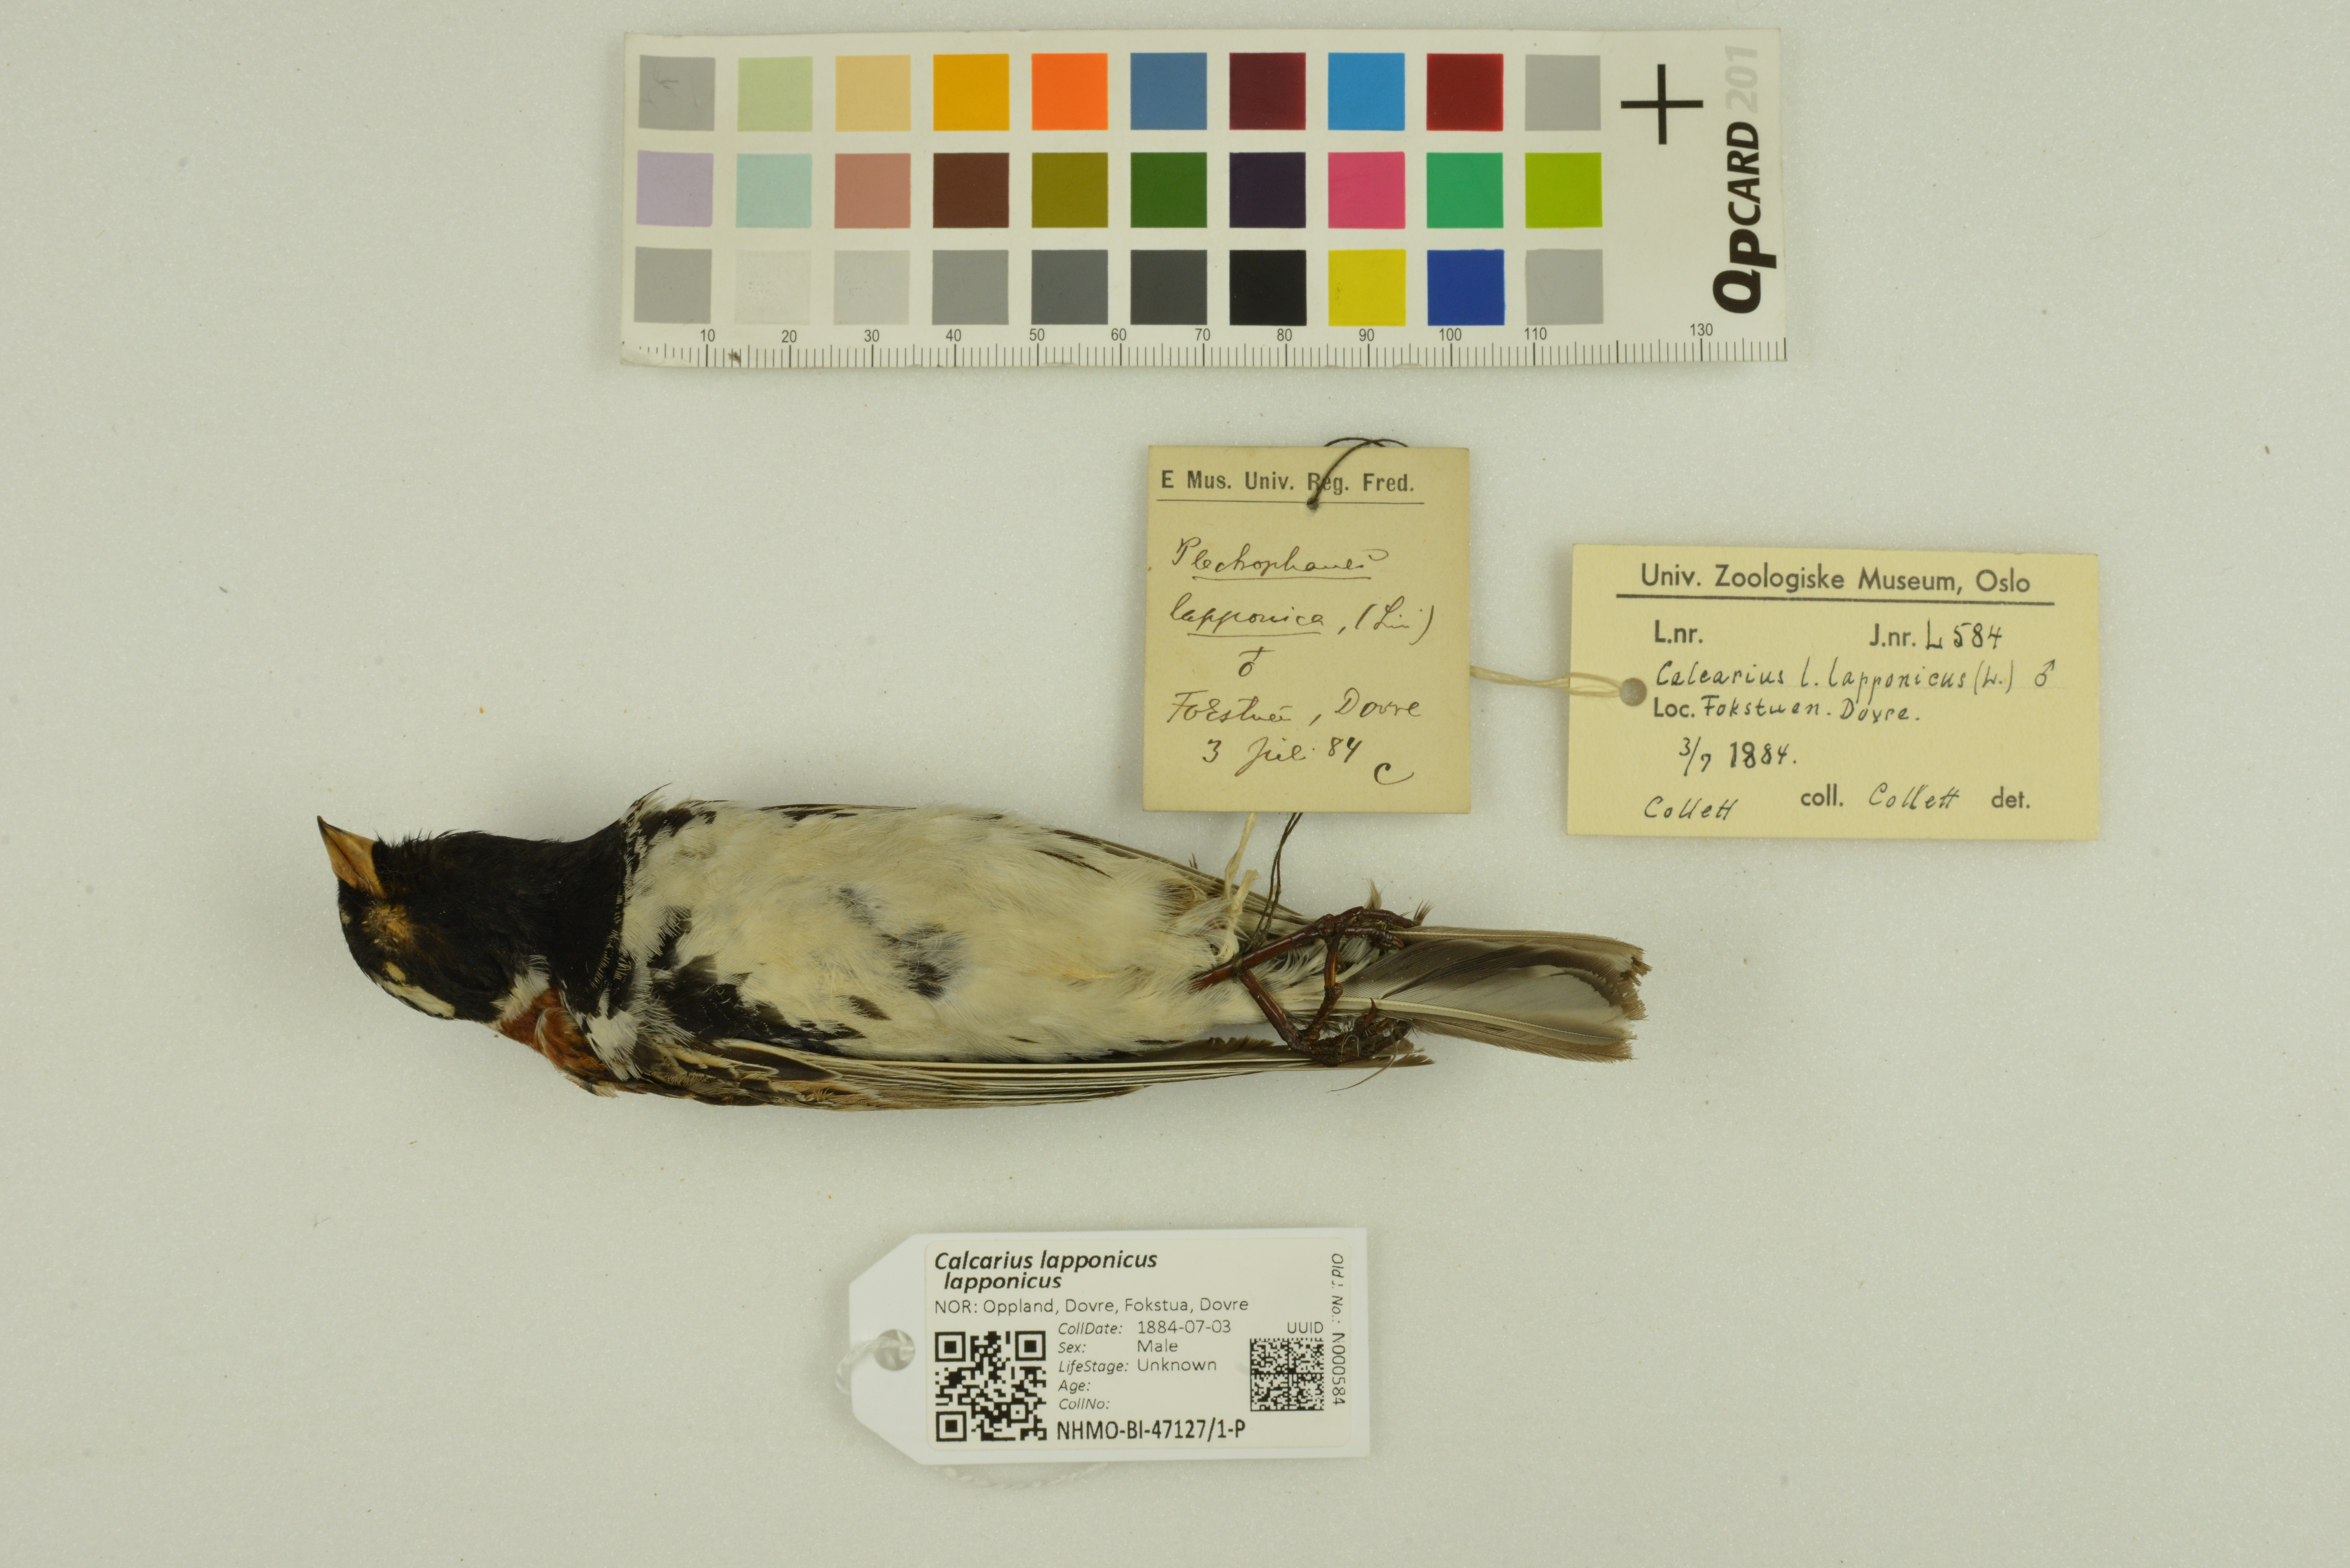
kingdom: Animalia
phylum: Chordata
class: Aves
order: Passeriformes
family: Calcariidae
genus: Calcarius
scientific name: Calcarius lapponicus
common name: Lapland longspur
